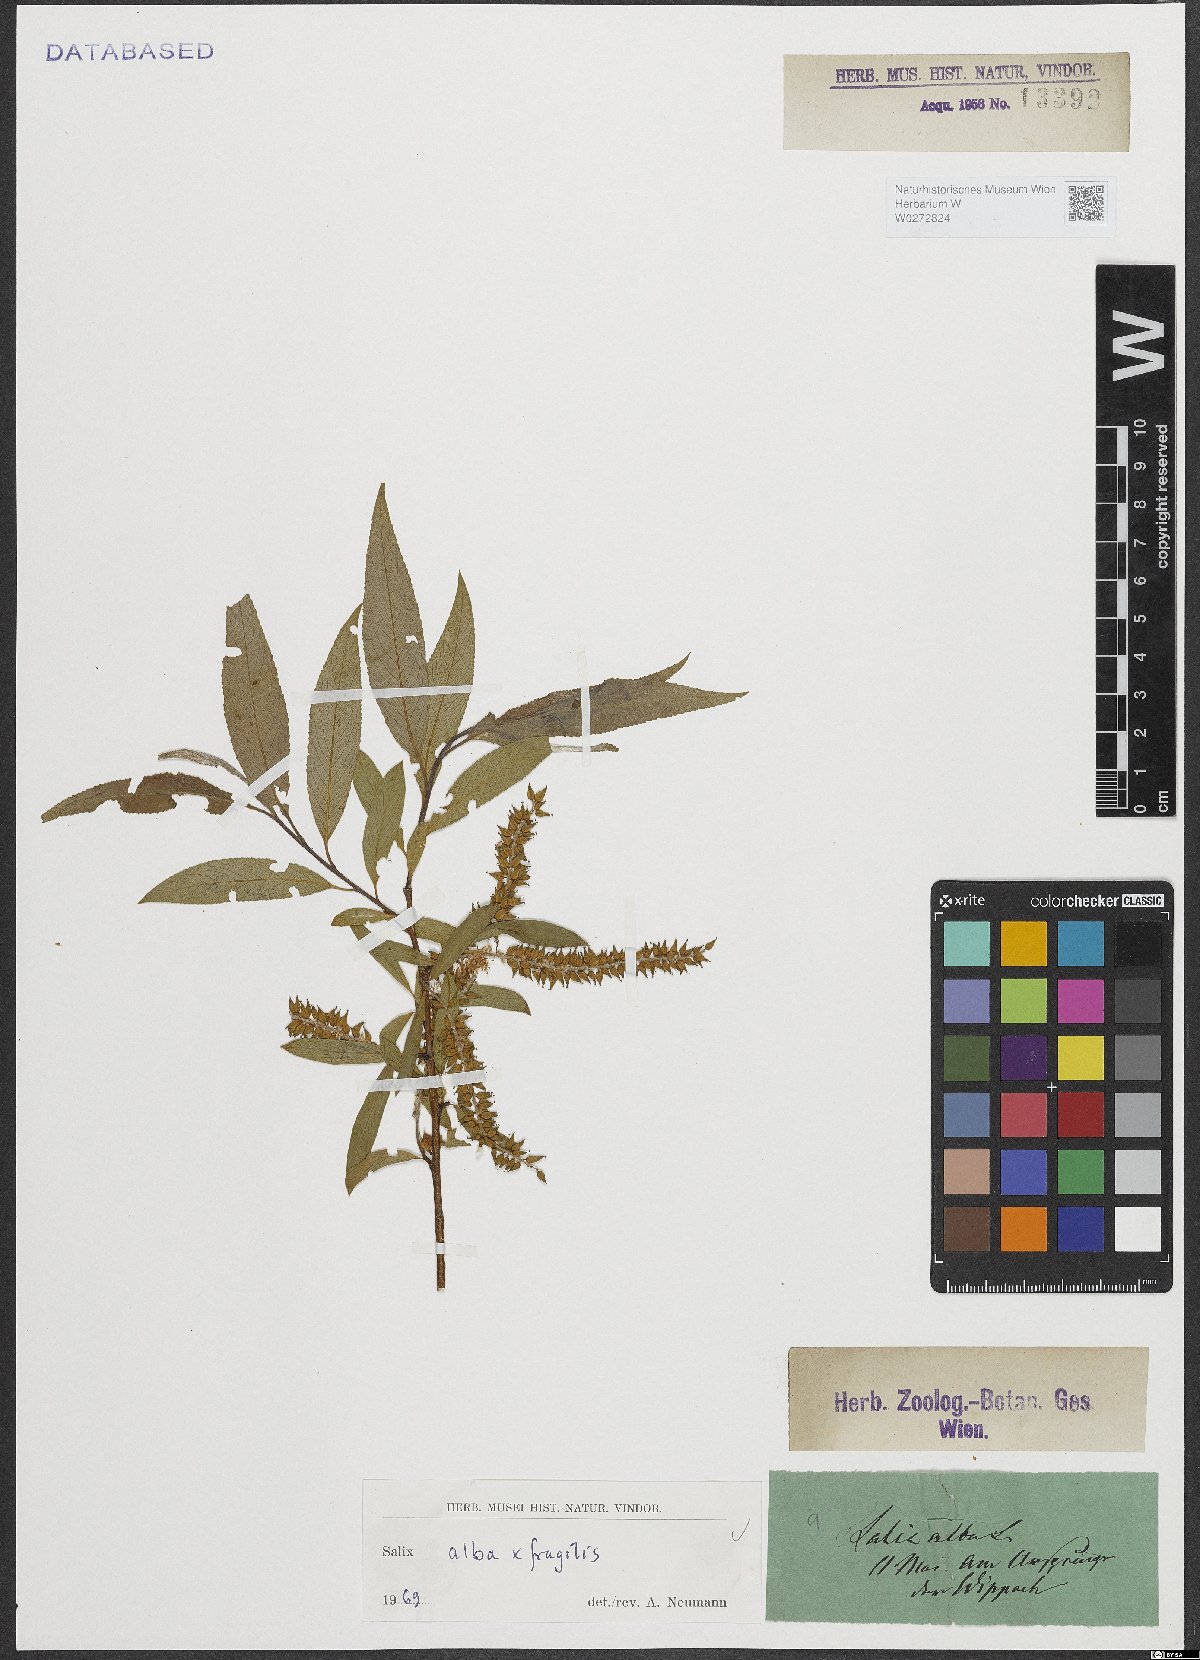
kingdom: Plantae
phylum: Tracheophyta
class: Magnoliopsida
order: Malpighiales
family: Salicaceae
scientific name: Salicaceae
